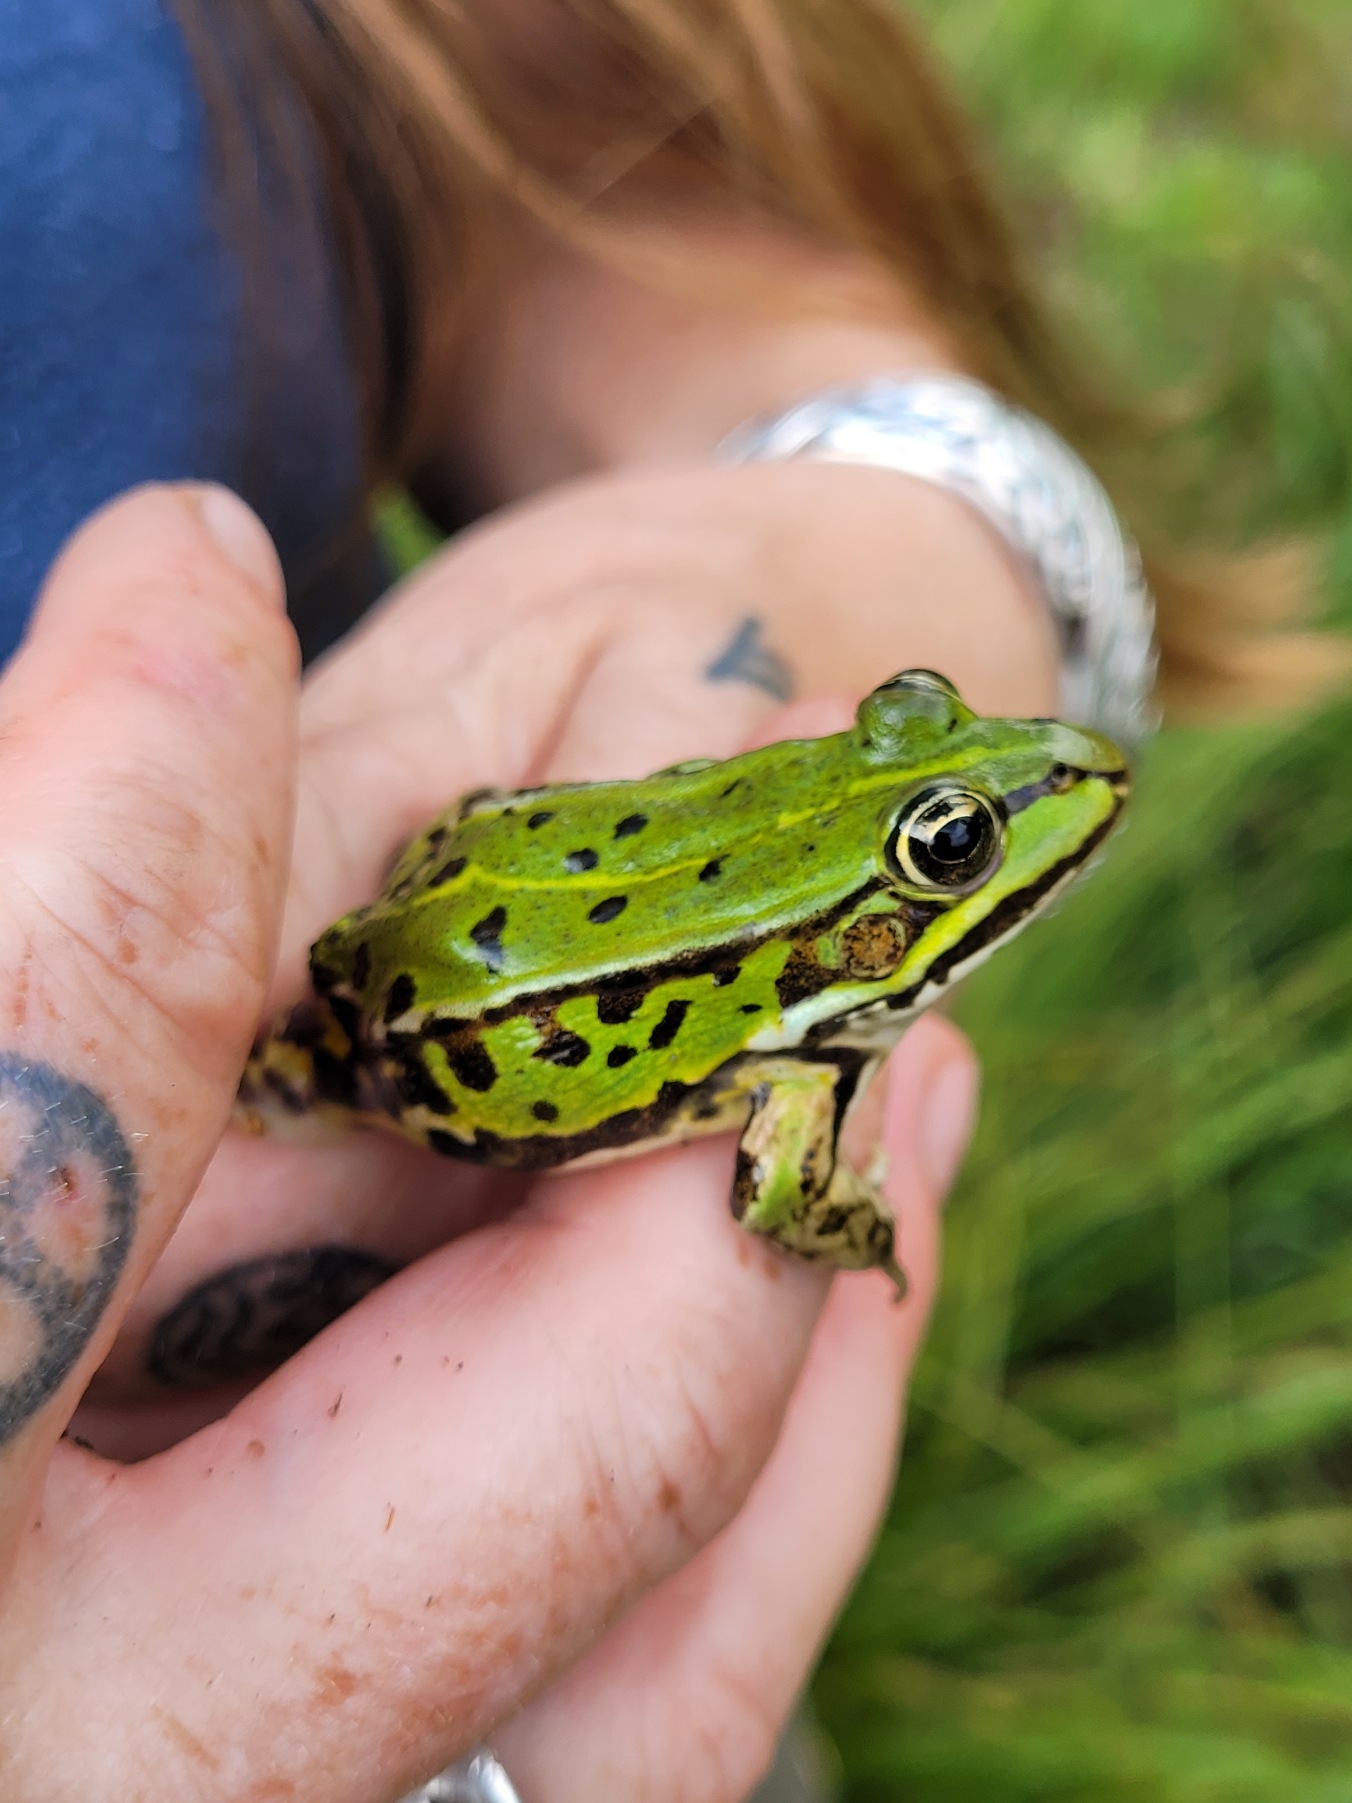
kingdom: Animalia
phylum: Chordata
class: Amphibia
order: Anura
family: Ranidae
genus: Pelophylax
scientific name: Pelophylax lessonae
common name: Grøn frø
